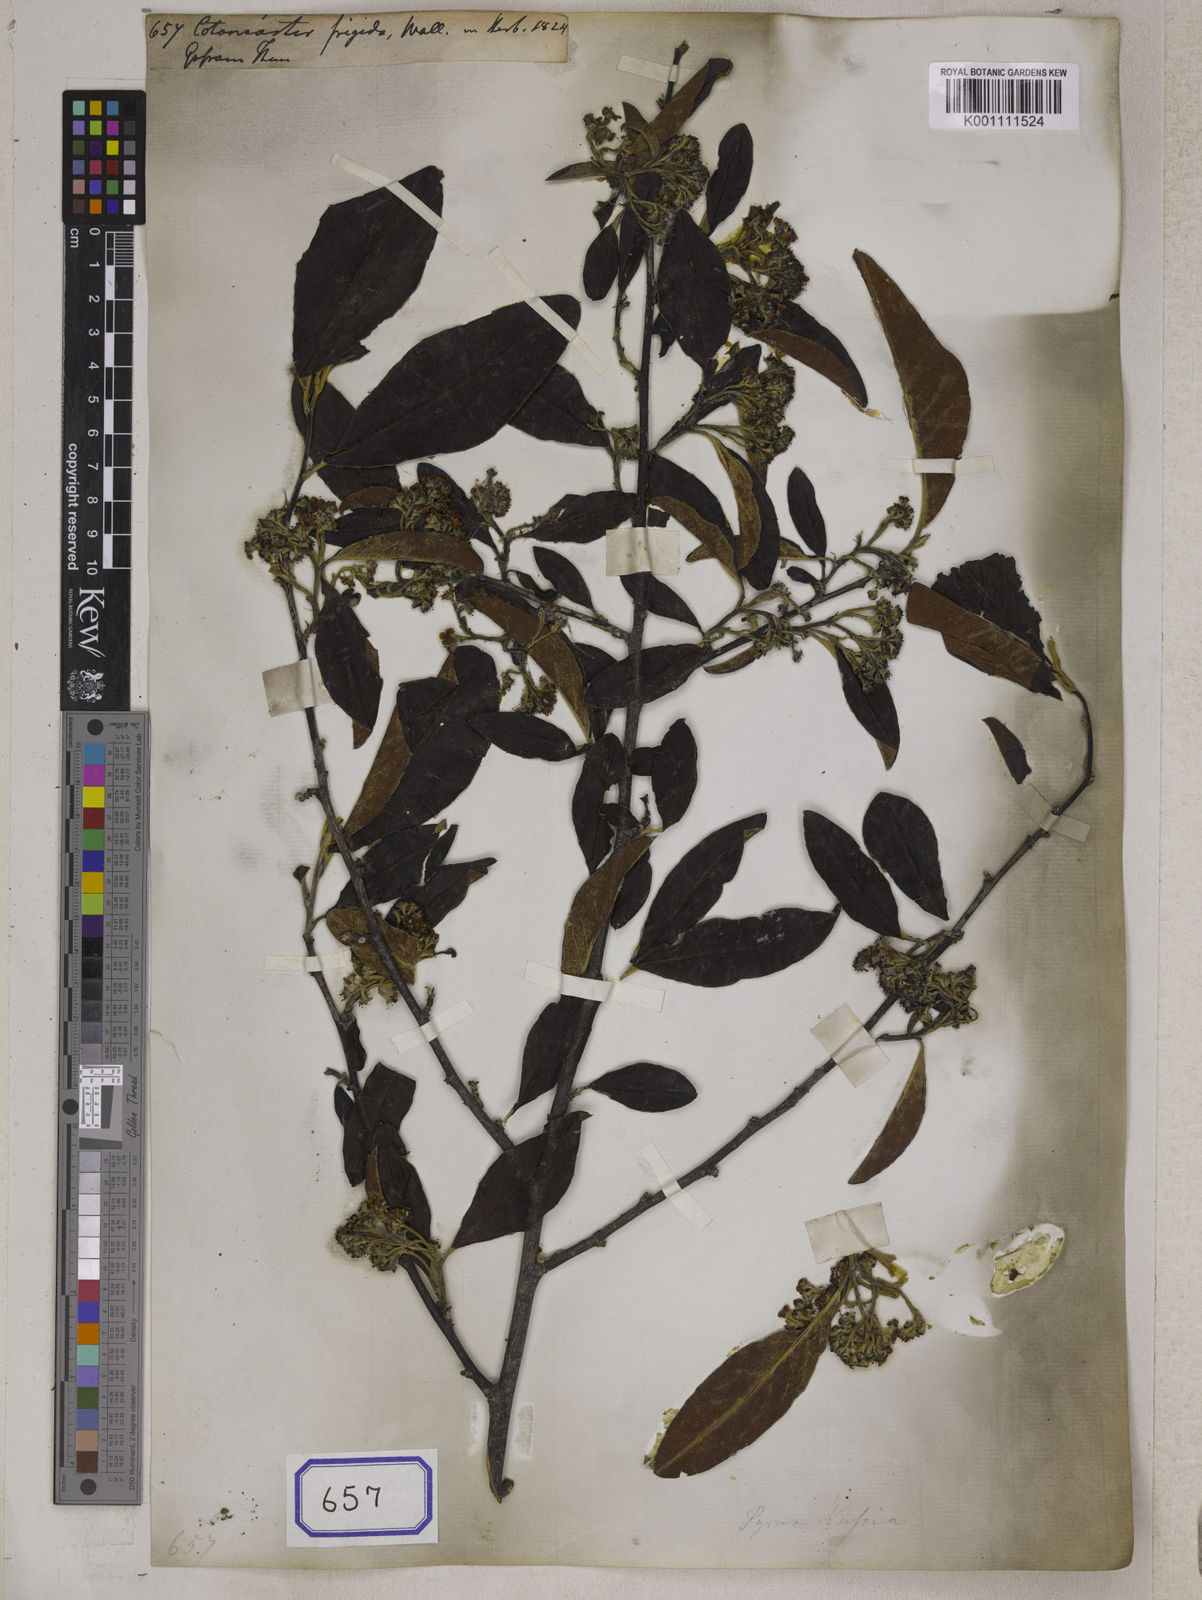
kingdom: Plantae
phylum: Tracheophyta
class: Magnoliopsida
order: Rosales
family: Rosaceae
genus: Cotoneaster
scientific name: Cotoneaster
